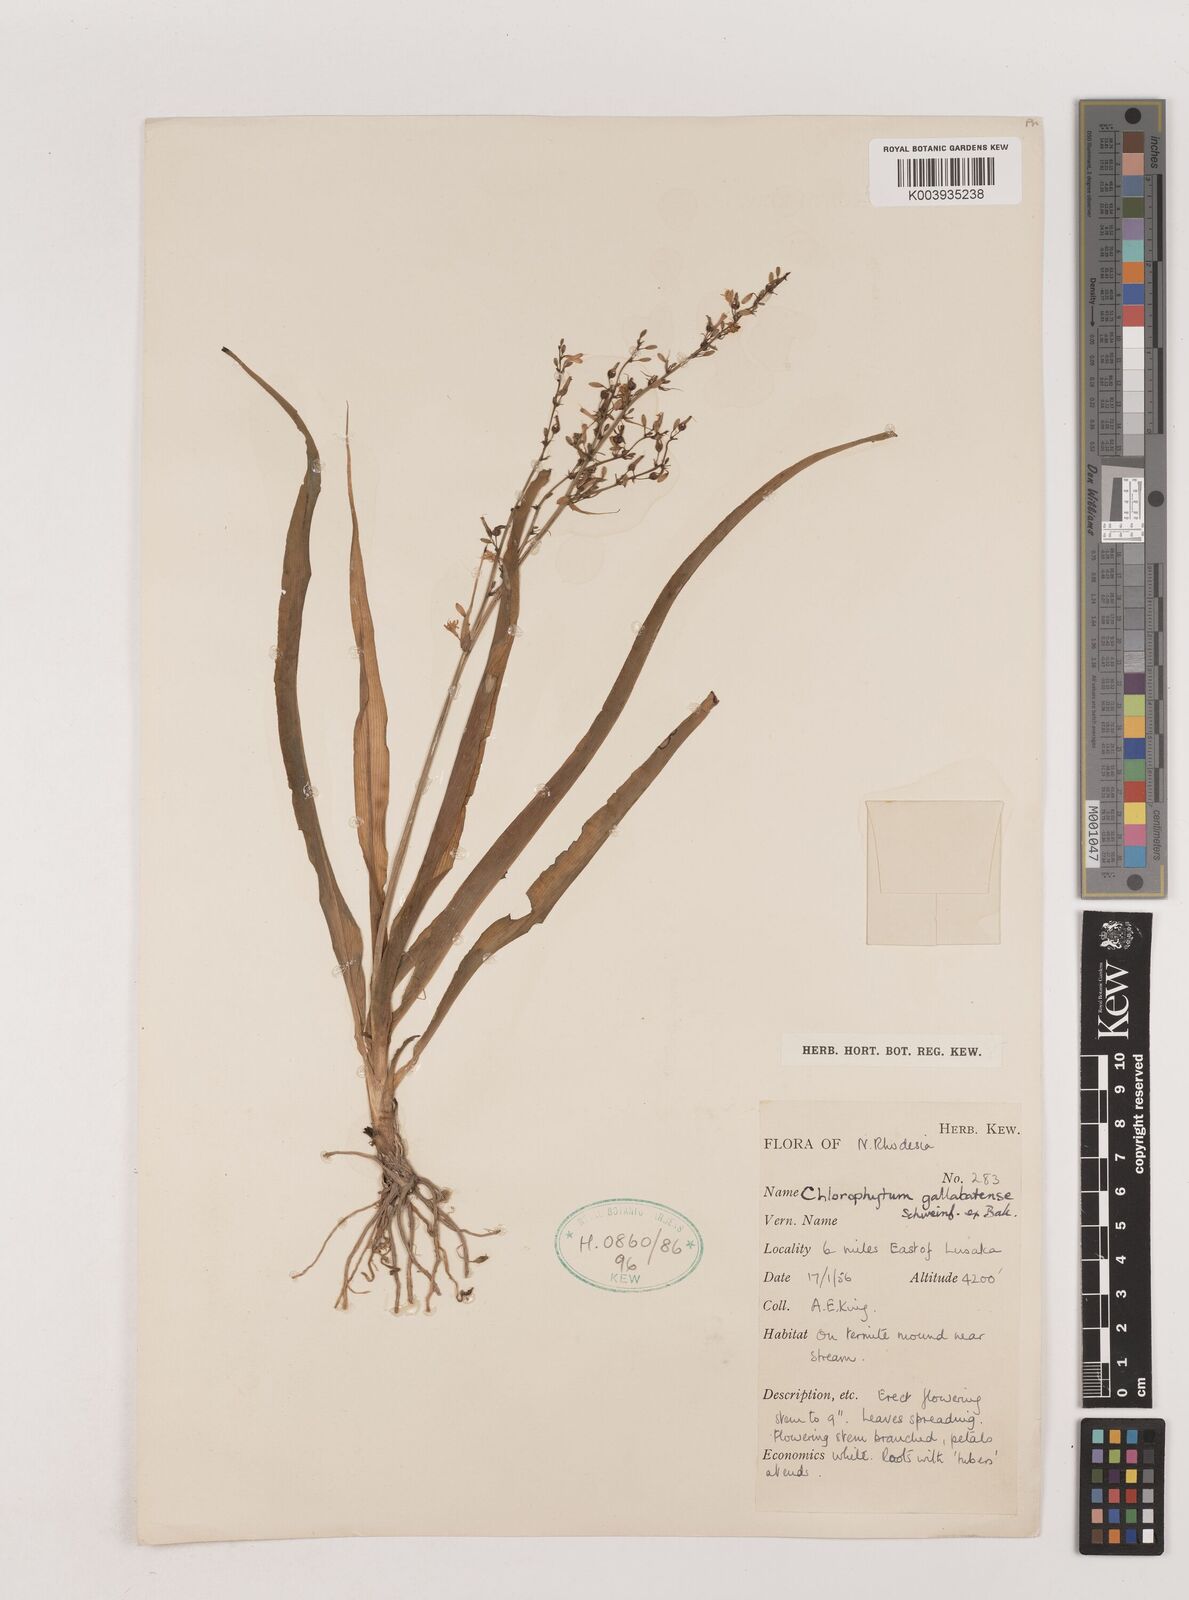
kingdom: Plantae
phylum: Tracheophyta
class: Liliopsida
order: Asparagales
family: Asparagaceae
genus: Chlorophytum
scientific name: Chlorophytum gallabatense
